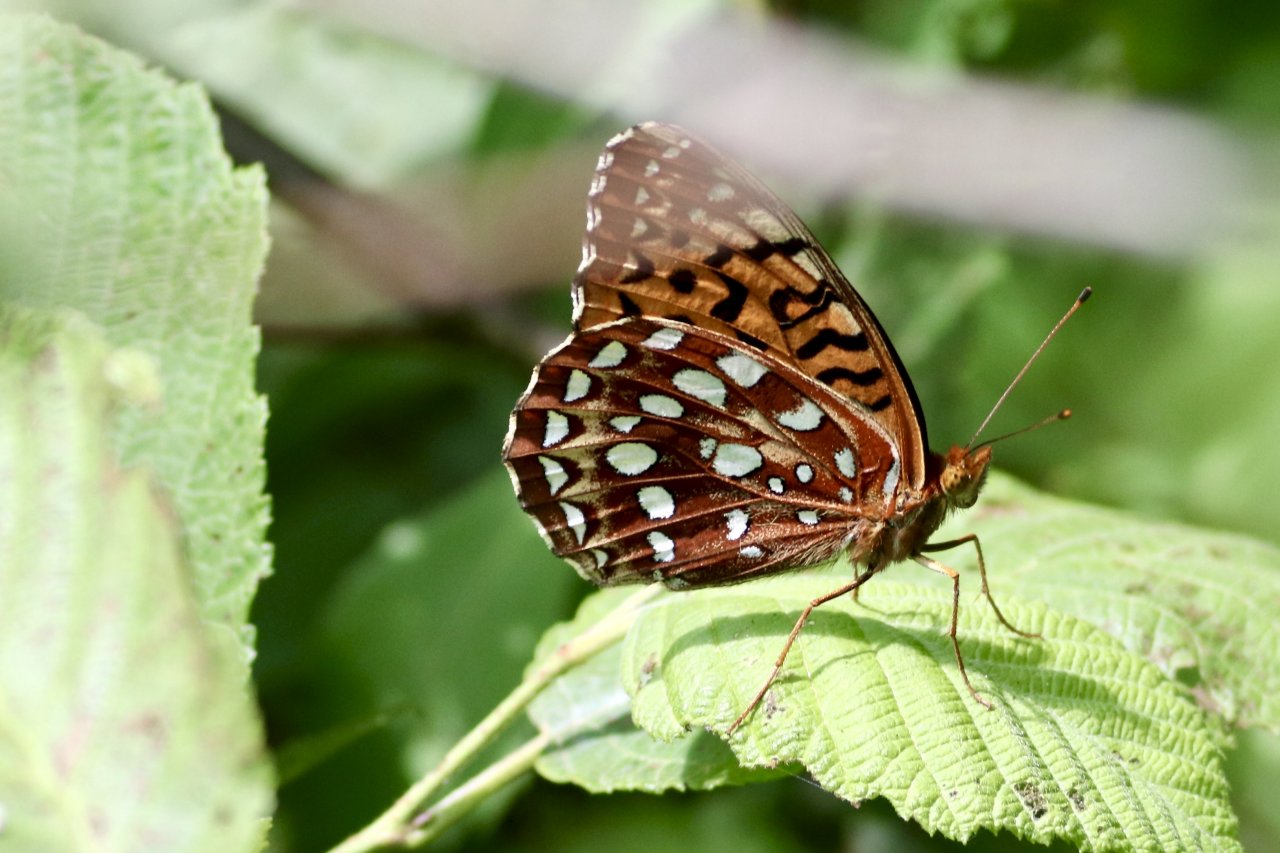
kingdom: Animalia
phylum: Arthropoda
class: Insecta
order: Lepidoptera
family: Nymphalidae
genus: Speyeria
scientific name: Speyeria cybele
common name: Great Spangled Fritillary
